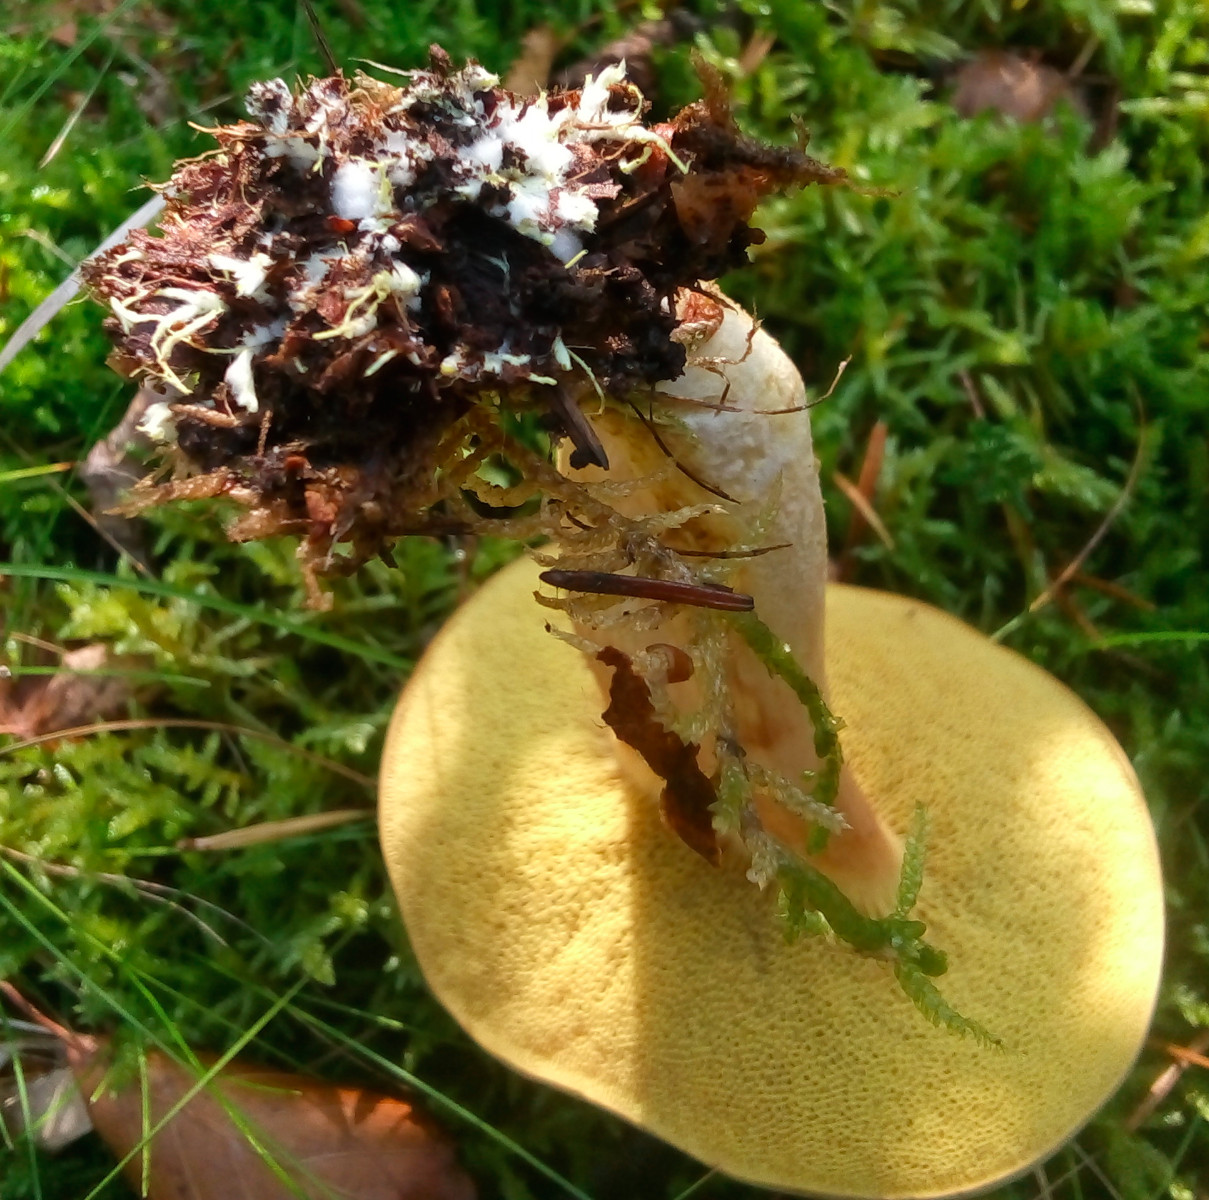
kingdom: Fungi
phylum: Basidiomycota
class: Agaricomycetes
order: Boletales
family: Boletaceae
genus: Xerocomus
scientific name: Xerocomus ferrugineus
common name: vaskeskinds-rørhat
